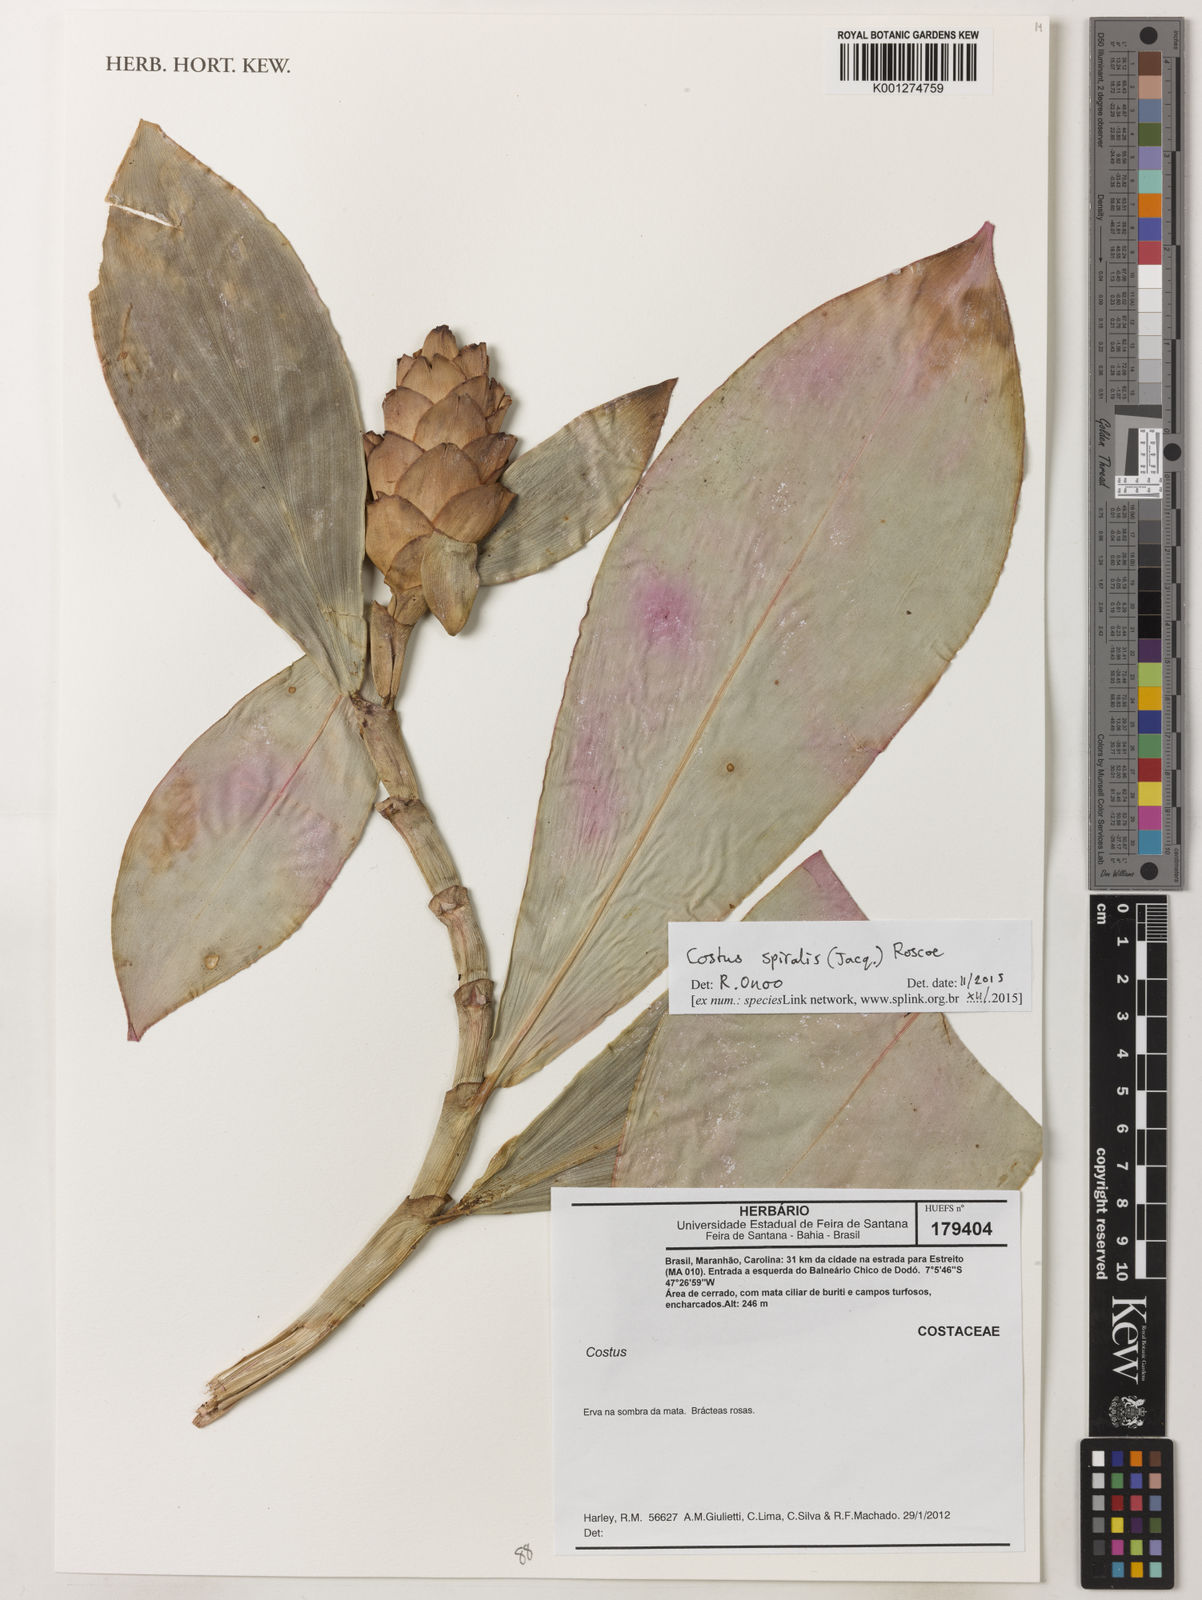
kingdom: Plantae
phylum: Tracheophyta
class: Liliopsida
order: Zingiberales
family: Costaceae
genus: Costus
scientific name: Costus spiralis
